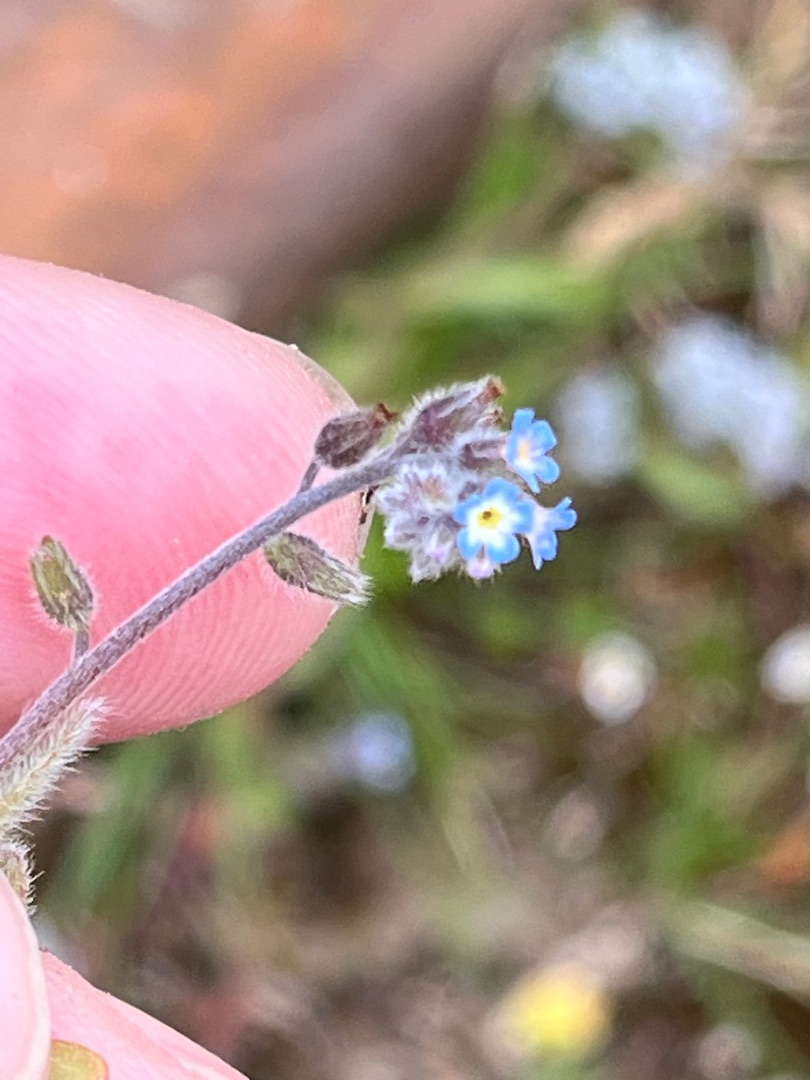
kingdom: Plantae
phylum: Tracheophyta
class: Magnoliopsida
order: Boraginales
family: Boraginaceae
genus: Myosotis
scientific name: Myosotis ramosissima
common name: Bakke-forglemmigej
